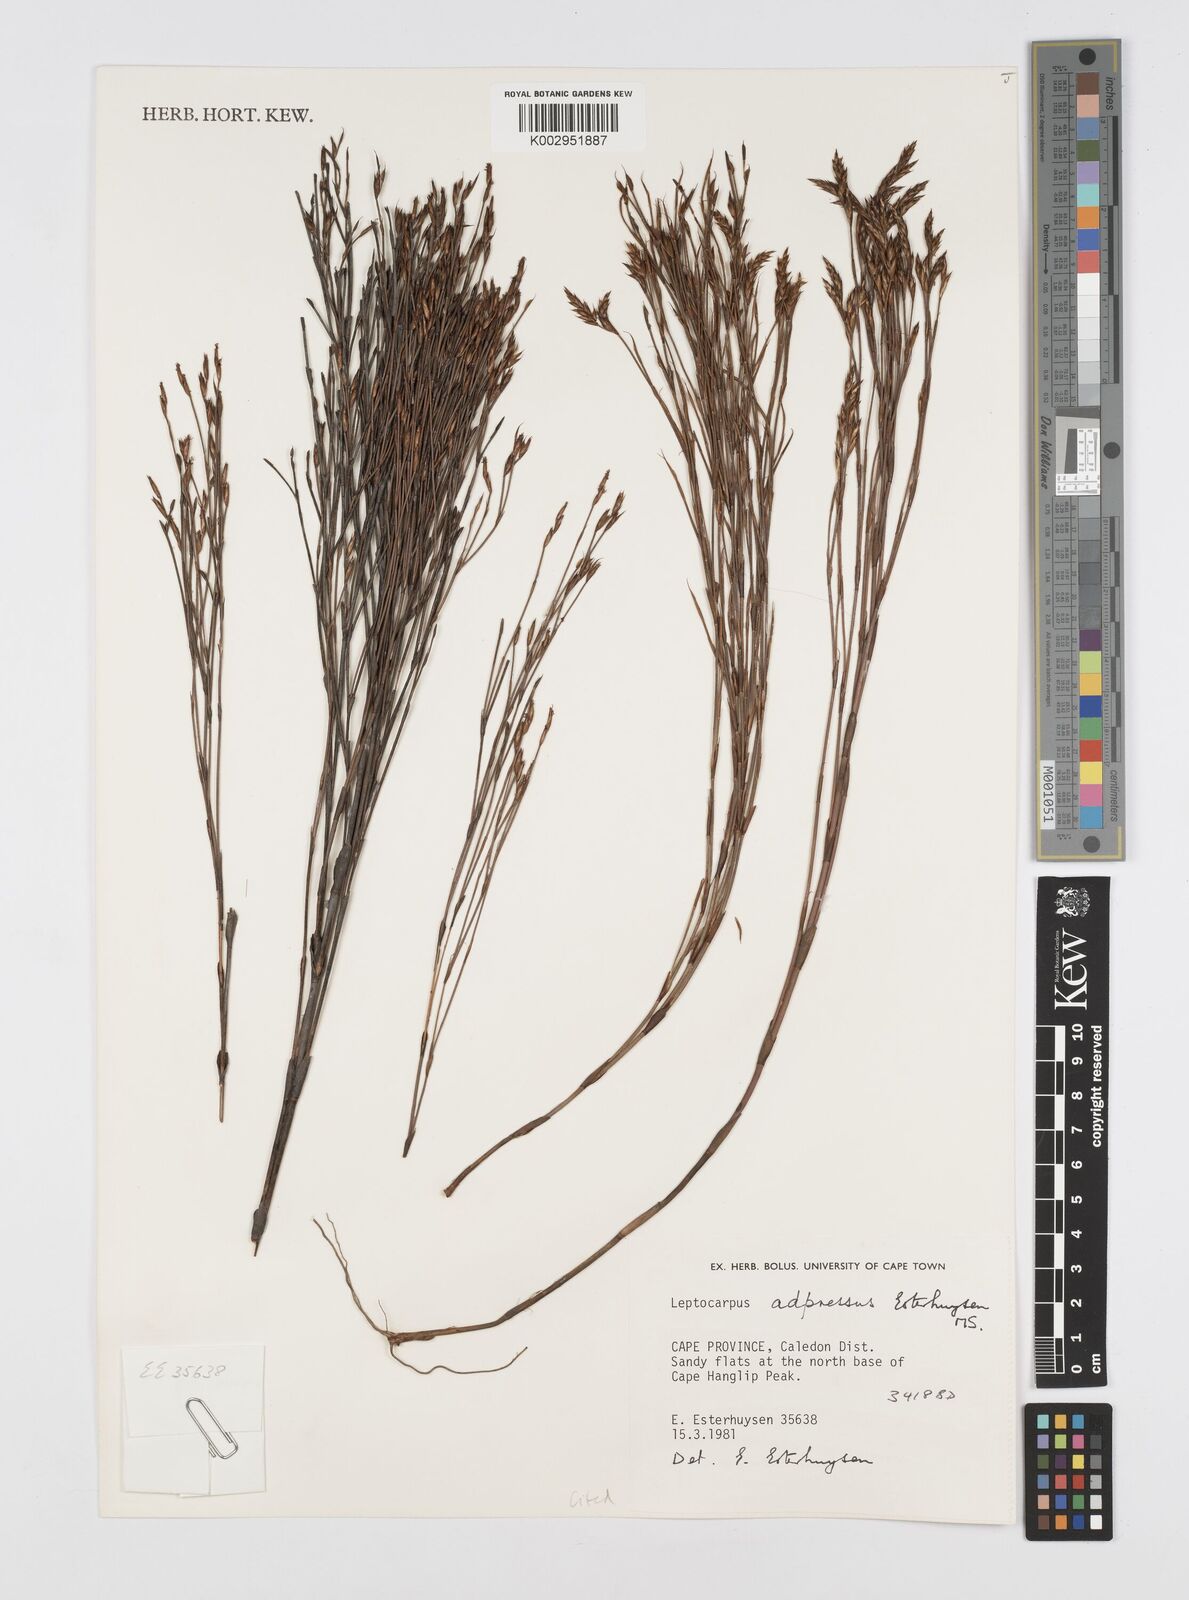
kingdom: Plantae
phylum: Tracheophyta
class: Liliopsida
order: Poales
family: Restionaceae
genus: Restio
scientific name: Restio adpressus
